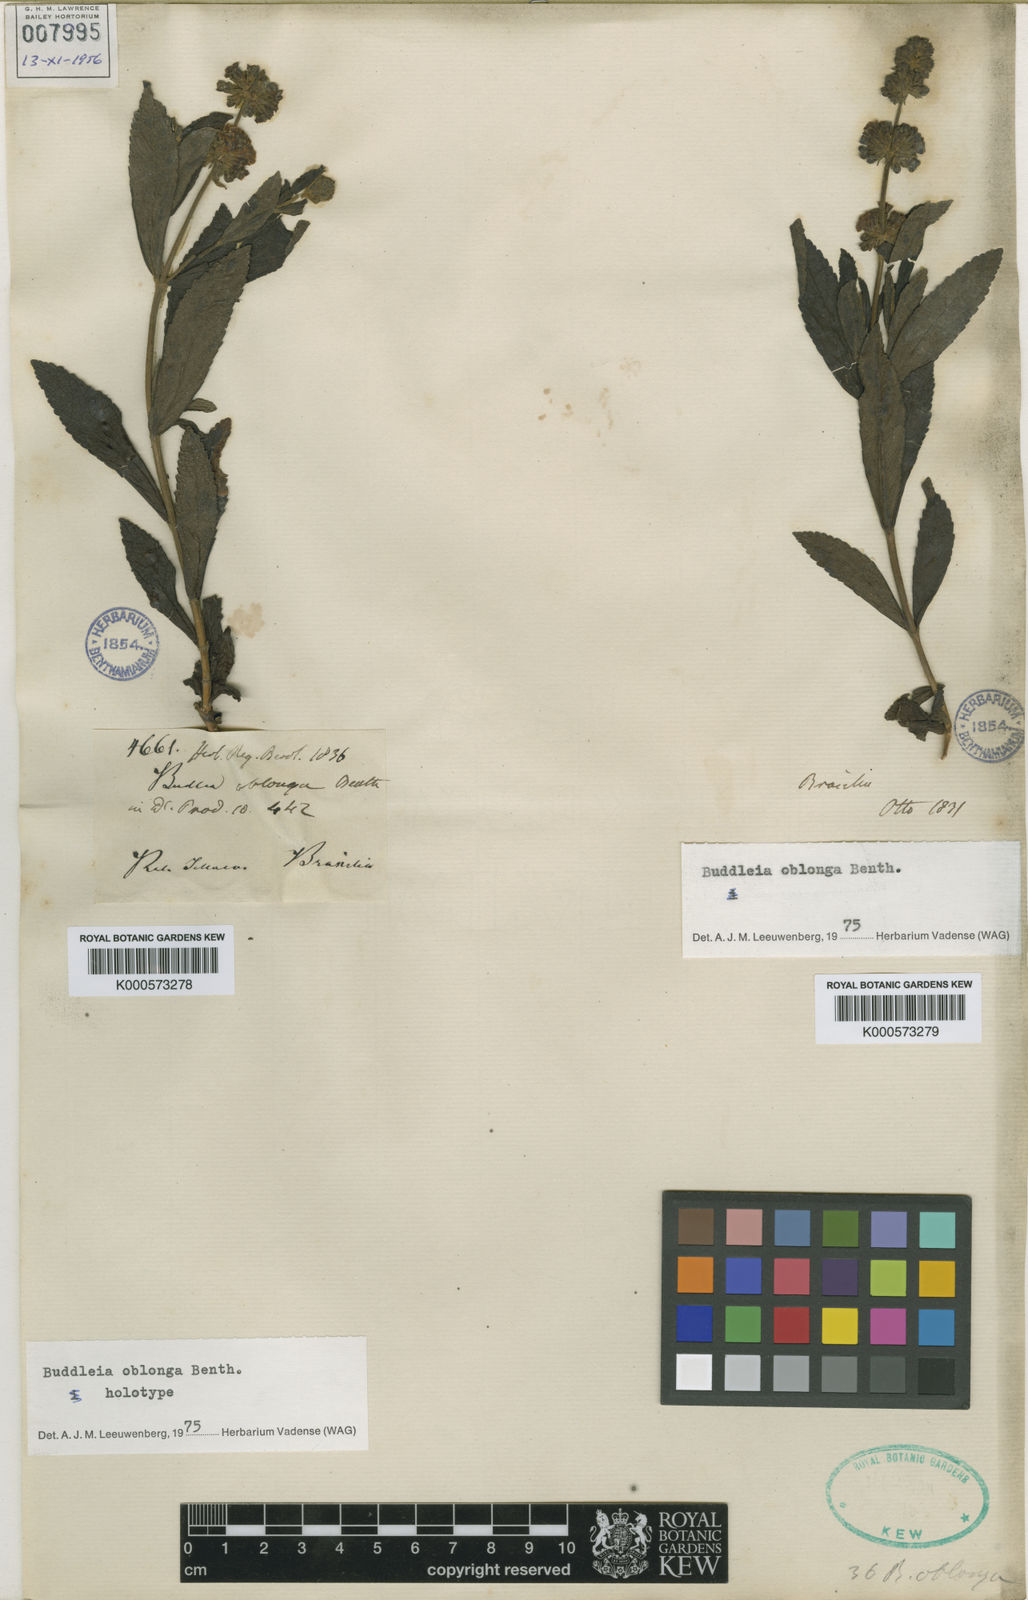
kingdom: Plantae
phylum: Tracheophyta
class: Magnoliopsida
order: Lamiales
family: Scrophulariaceae
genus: Buddleja
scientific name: Buddleja oblonga
